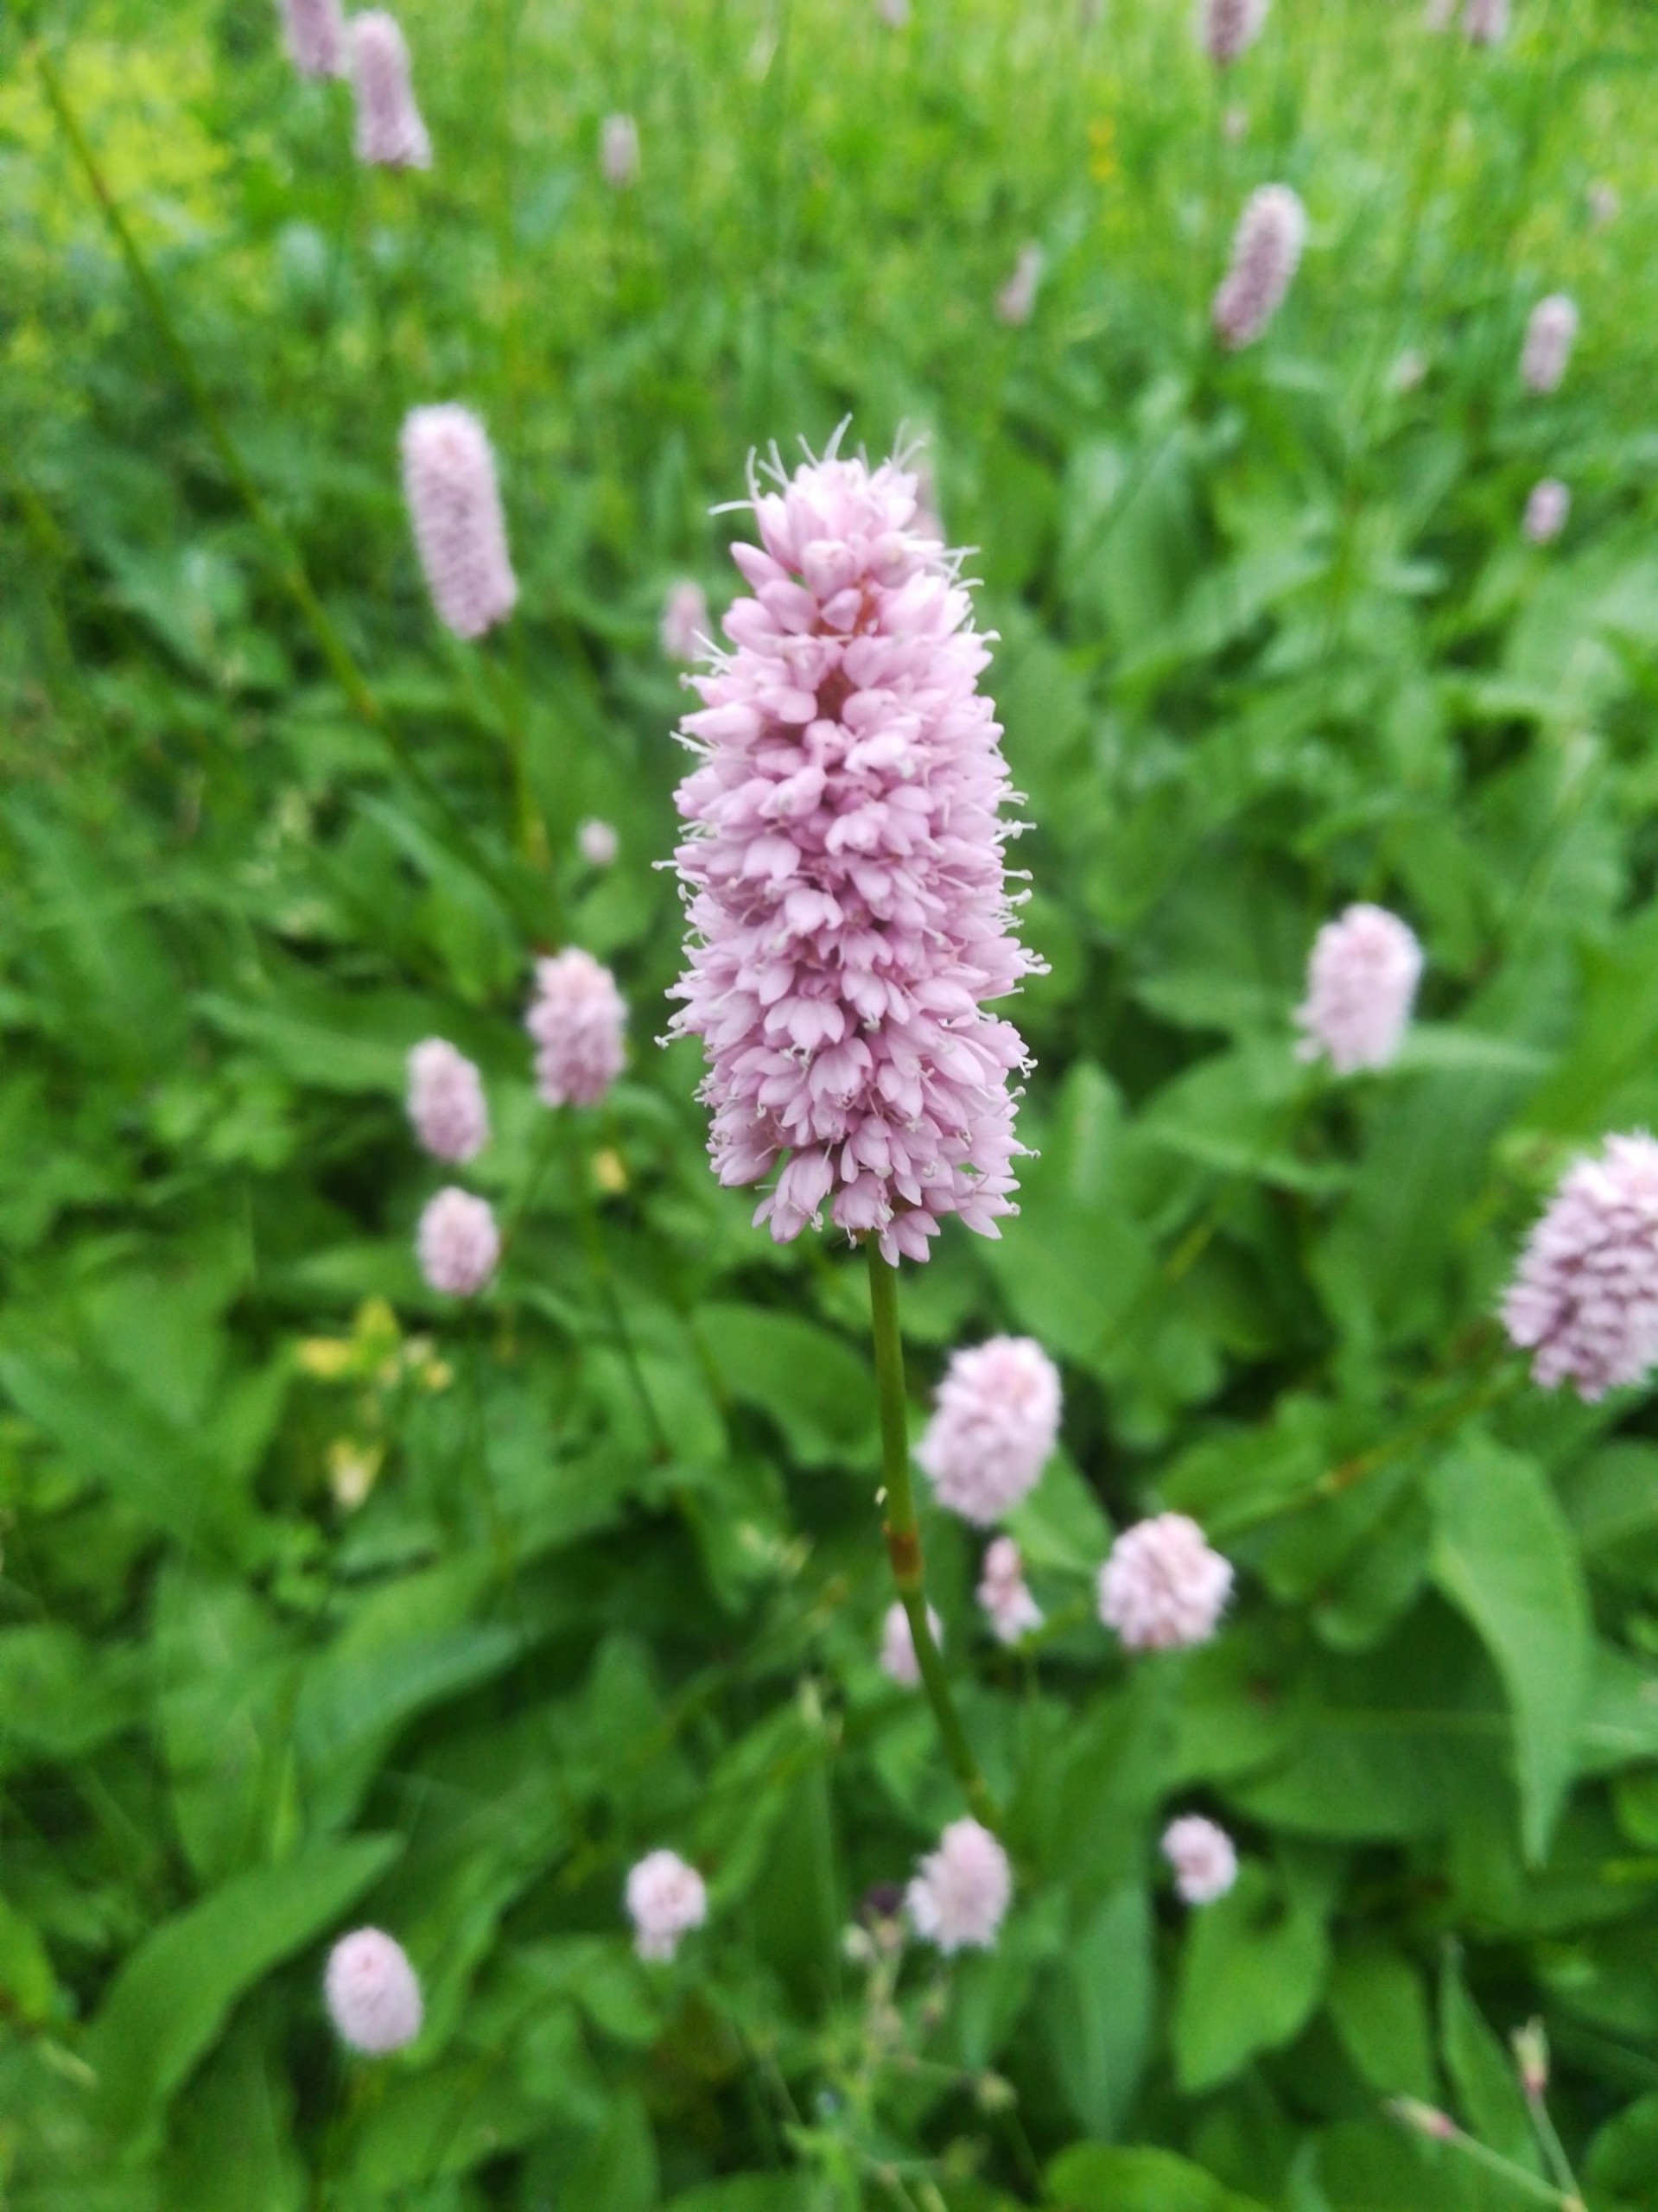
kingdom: Plantae
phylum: Tracheophyta
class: Magnoliopsida
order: Caryophyllales
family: Polygonaceae
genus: Bistorta
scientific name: Bistorta officinalis
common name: Slangeurt
